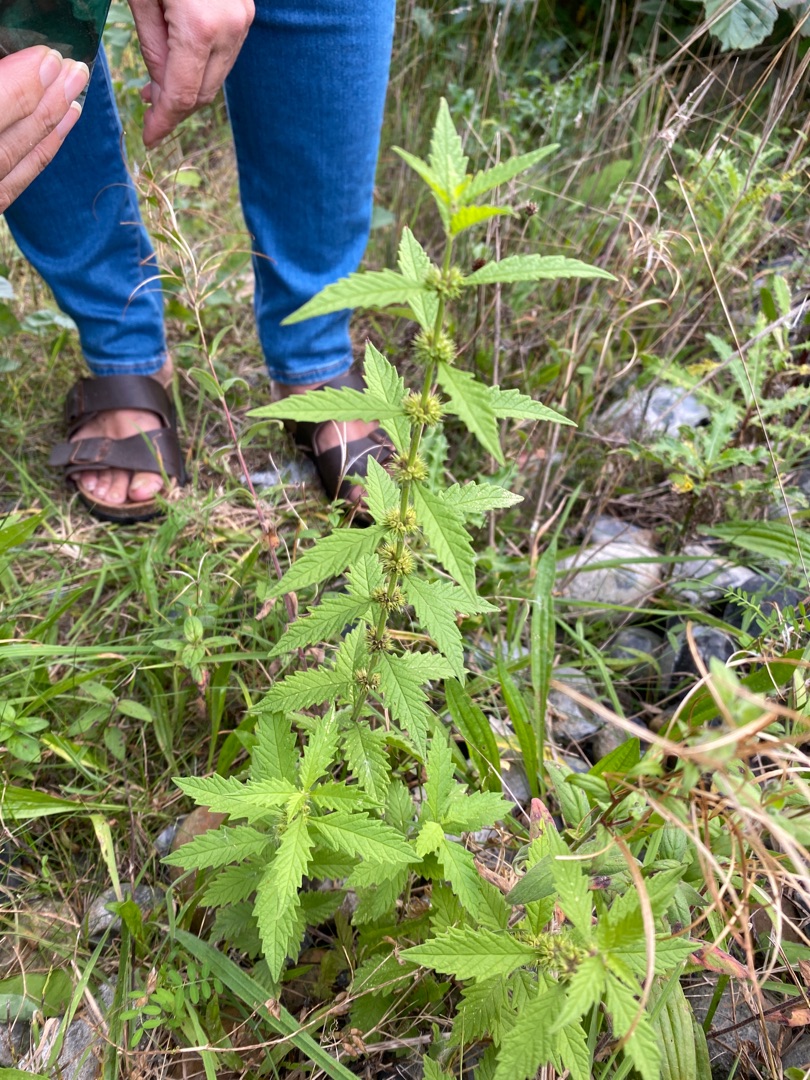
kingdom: Plantae
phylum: Tracheophyta
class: Magnoliopsida
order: Lamiales
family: Lamiaceae
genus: Lycopus
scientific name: Lycopus europaeus
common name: Sværtevæld
